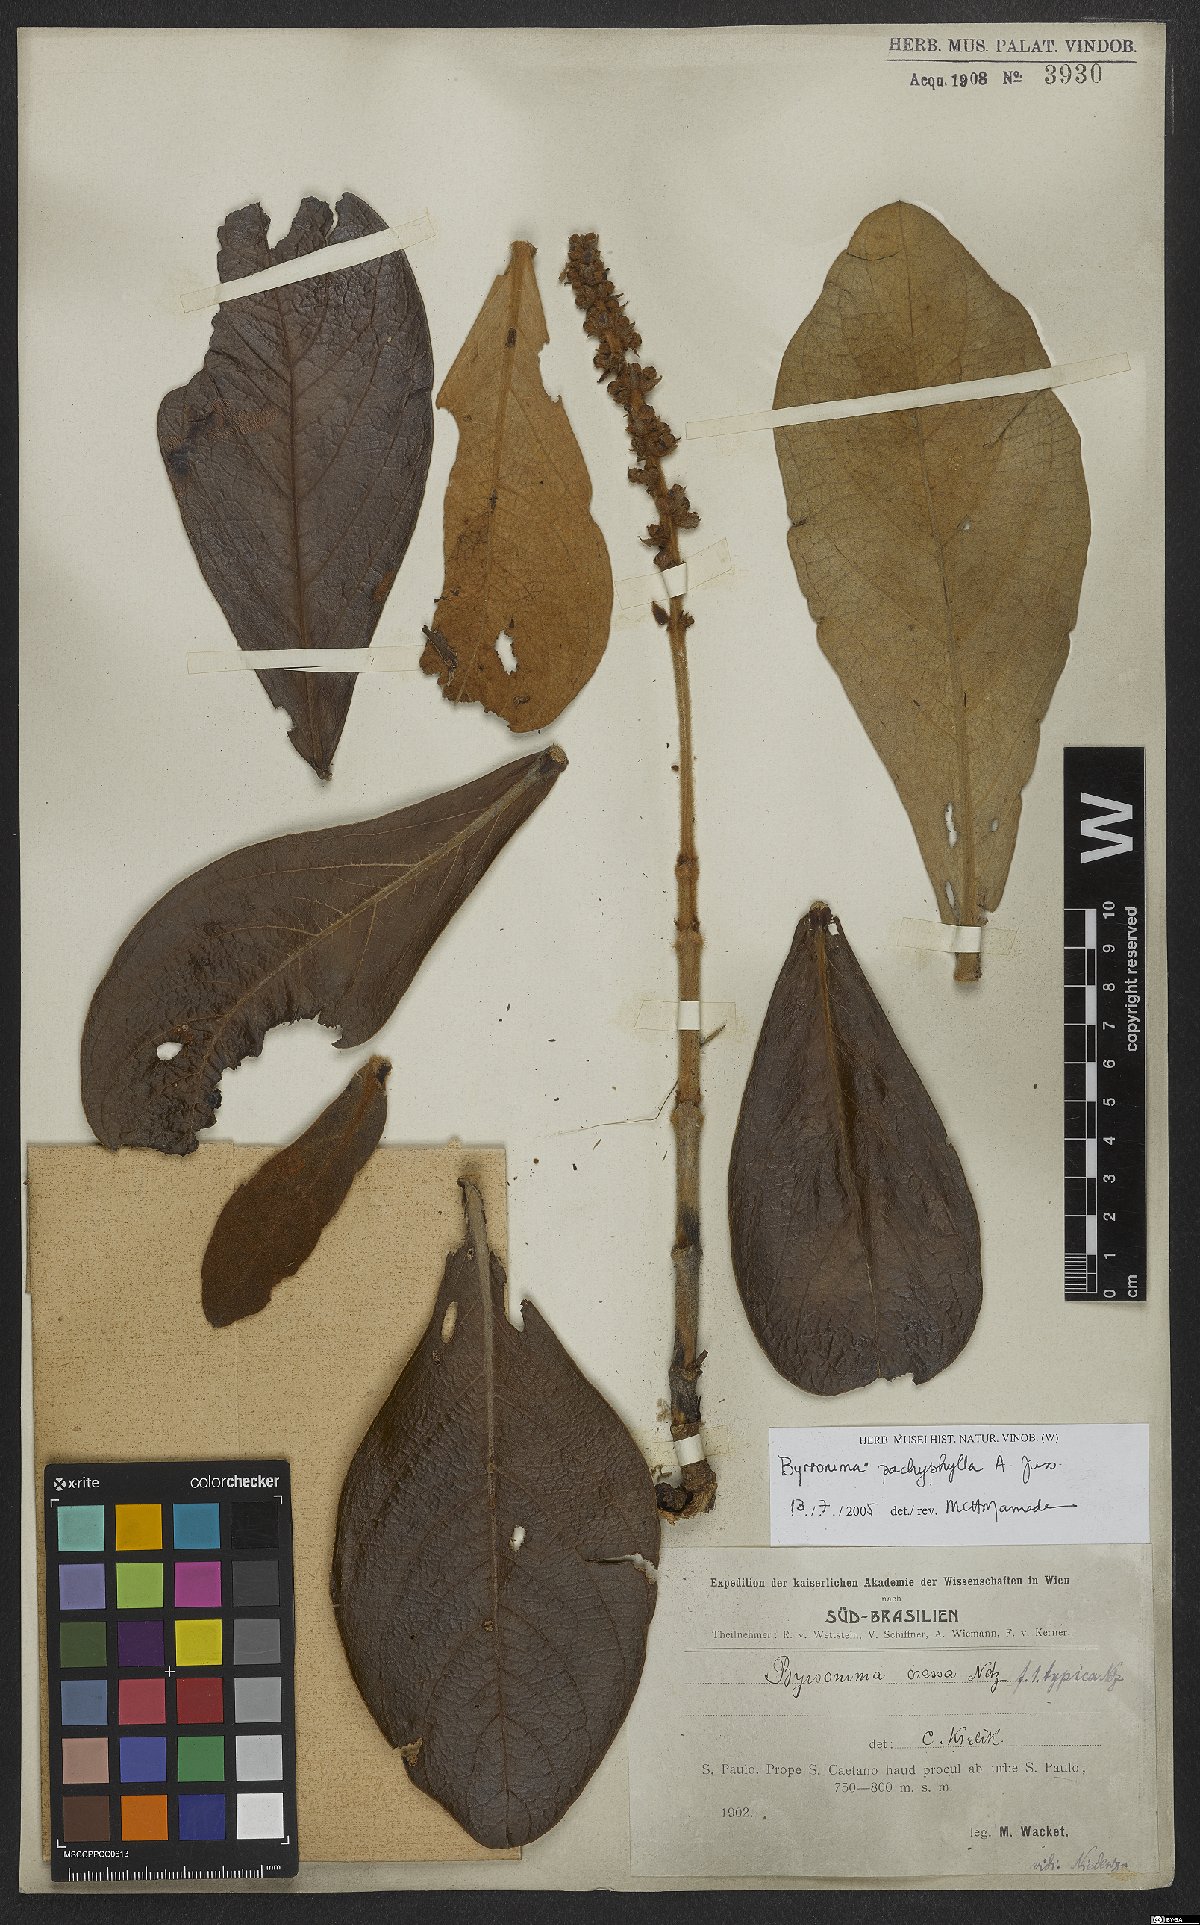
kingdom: Plantae
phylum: Tracheophyta
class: Magnoliopsida
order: Malpighiales
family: Malpighiaceae
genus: Byrsonima
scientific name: Byrsonima pachyphylla
